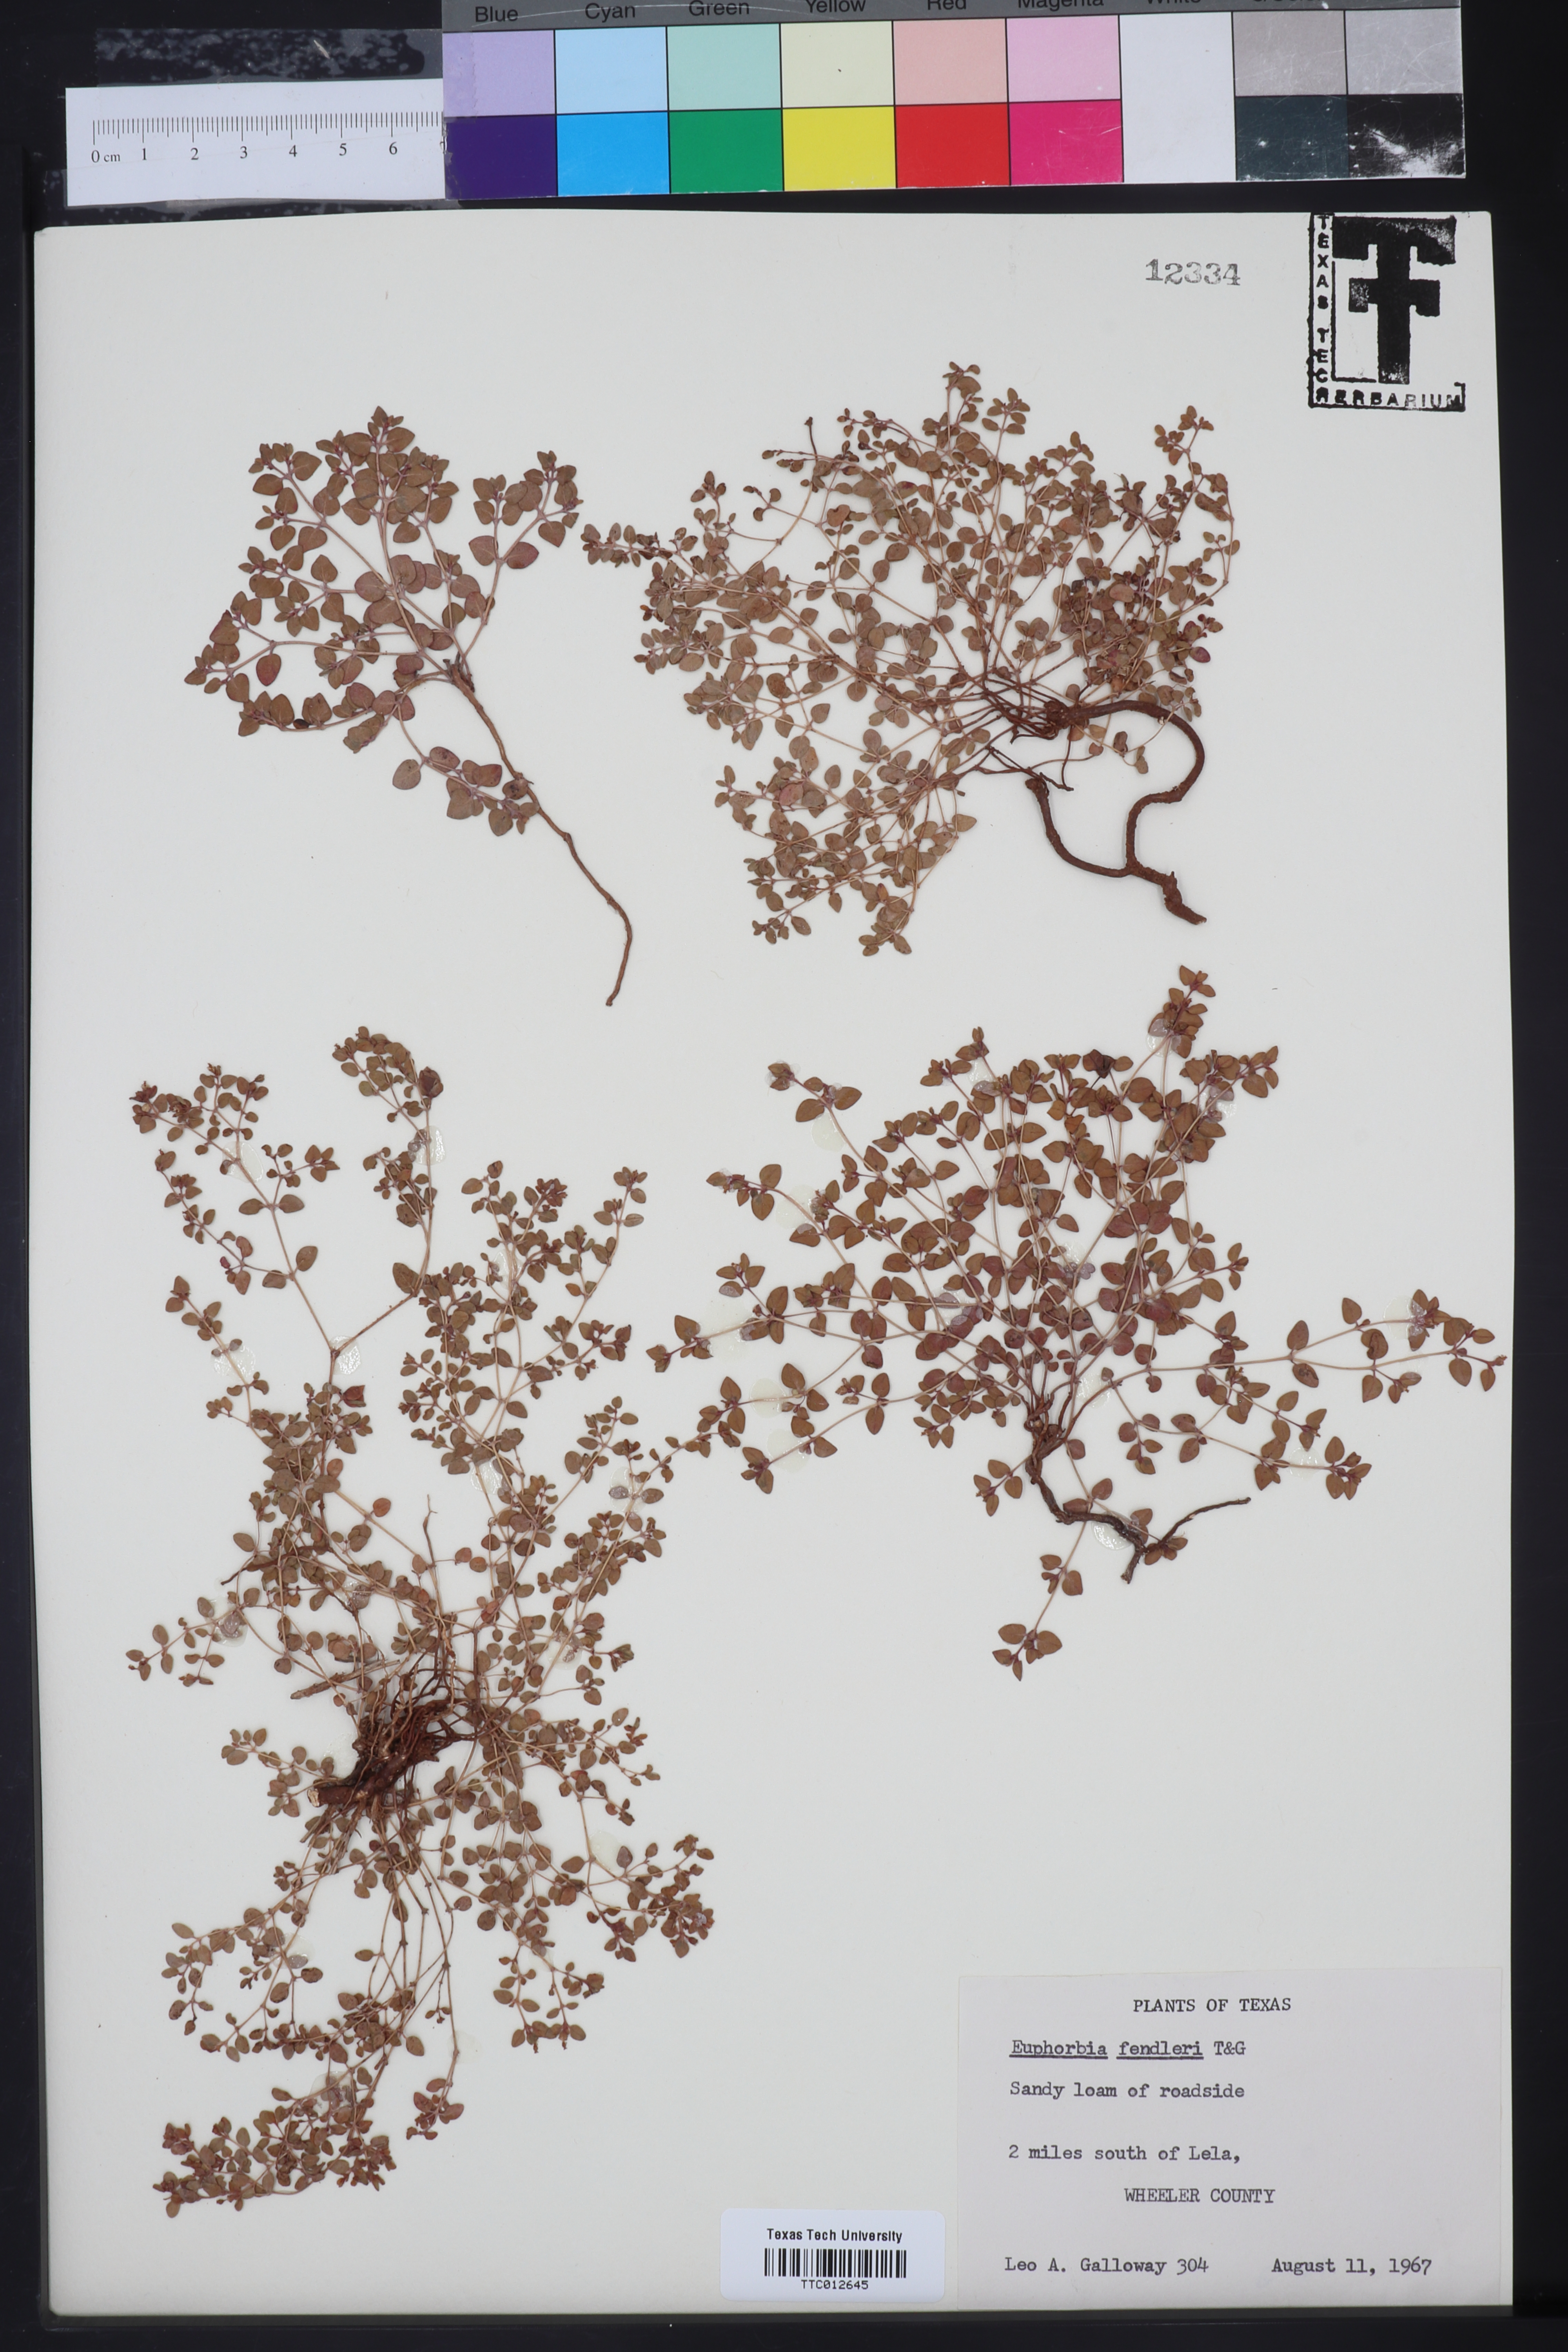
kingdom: Plantae
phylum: Tracheophyta
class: Magnoliopsida
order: Malpighiales
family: Euphorbiaceae
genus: Euphorbia
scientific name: Euphorbia fendleri
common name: Fendler's euphorbia
